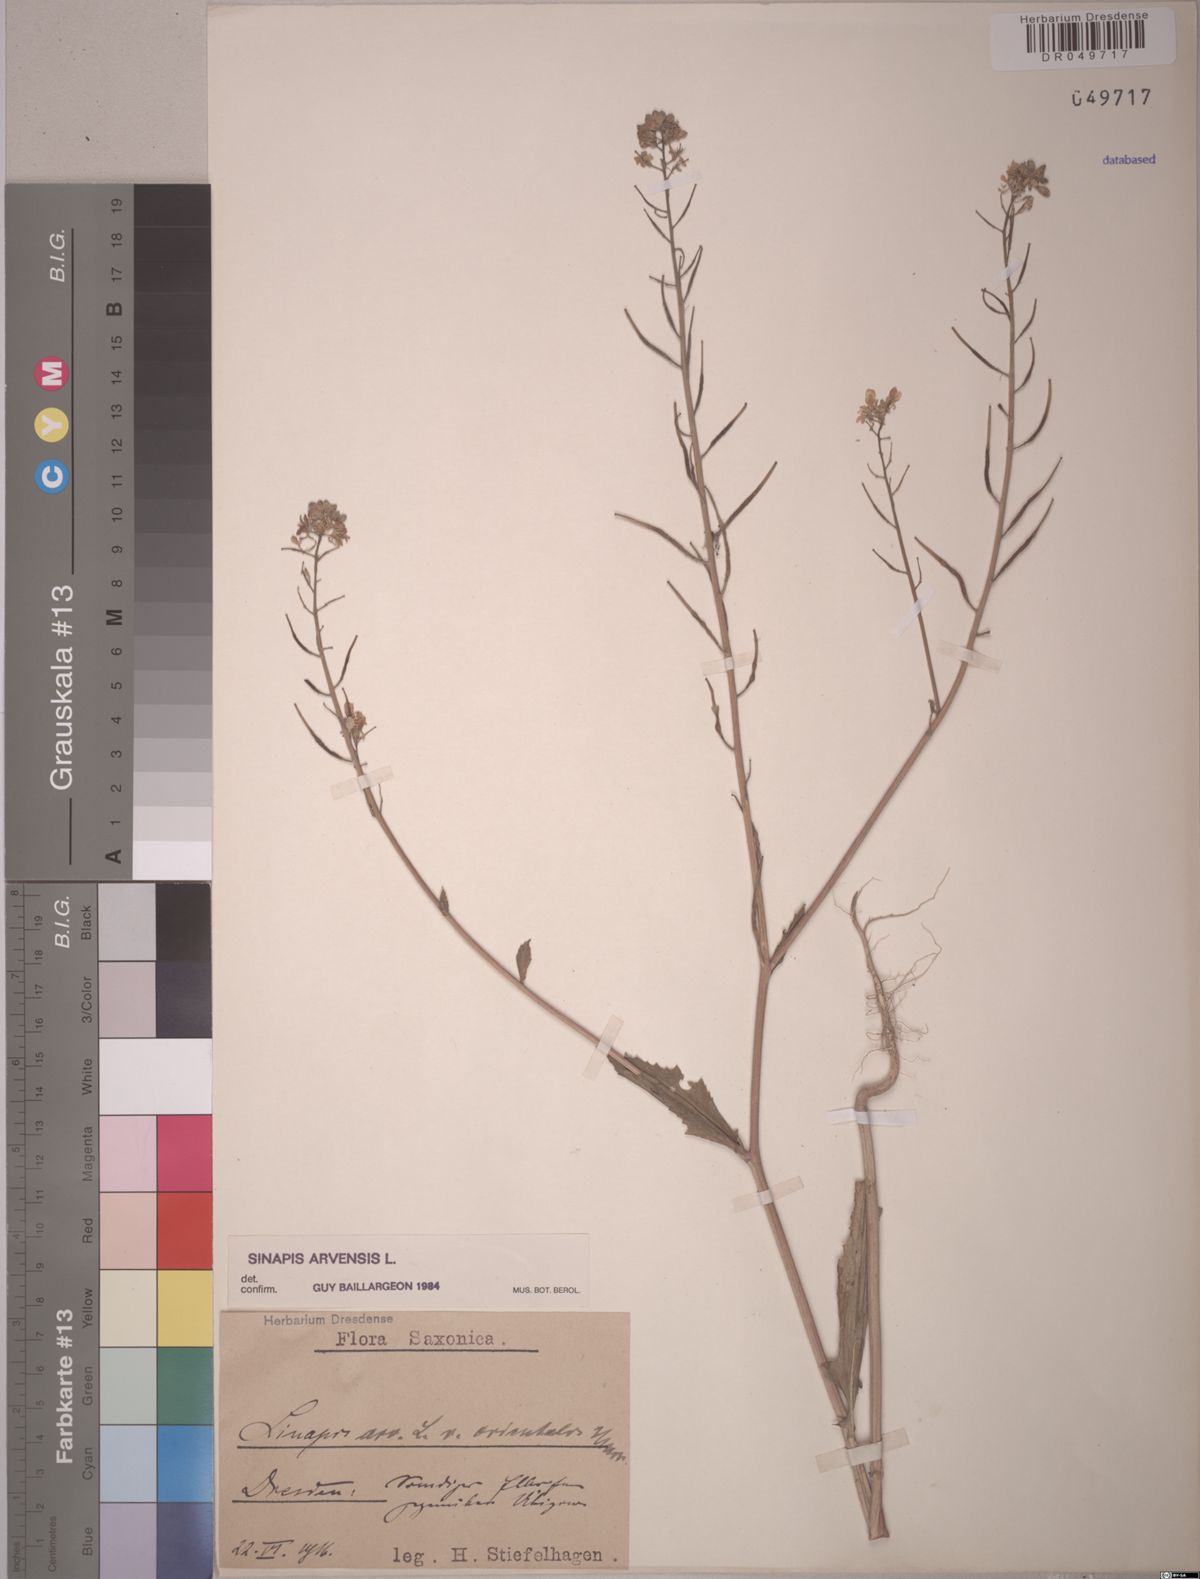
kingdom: Plantae
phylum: Tracheophyta
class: Magnoliopsida
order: Brassicales
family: Brassicaceae
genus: Sinapis
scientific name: Sinapis arvensis
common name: Charlock
